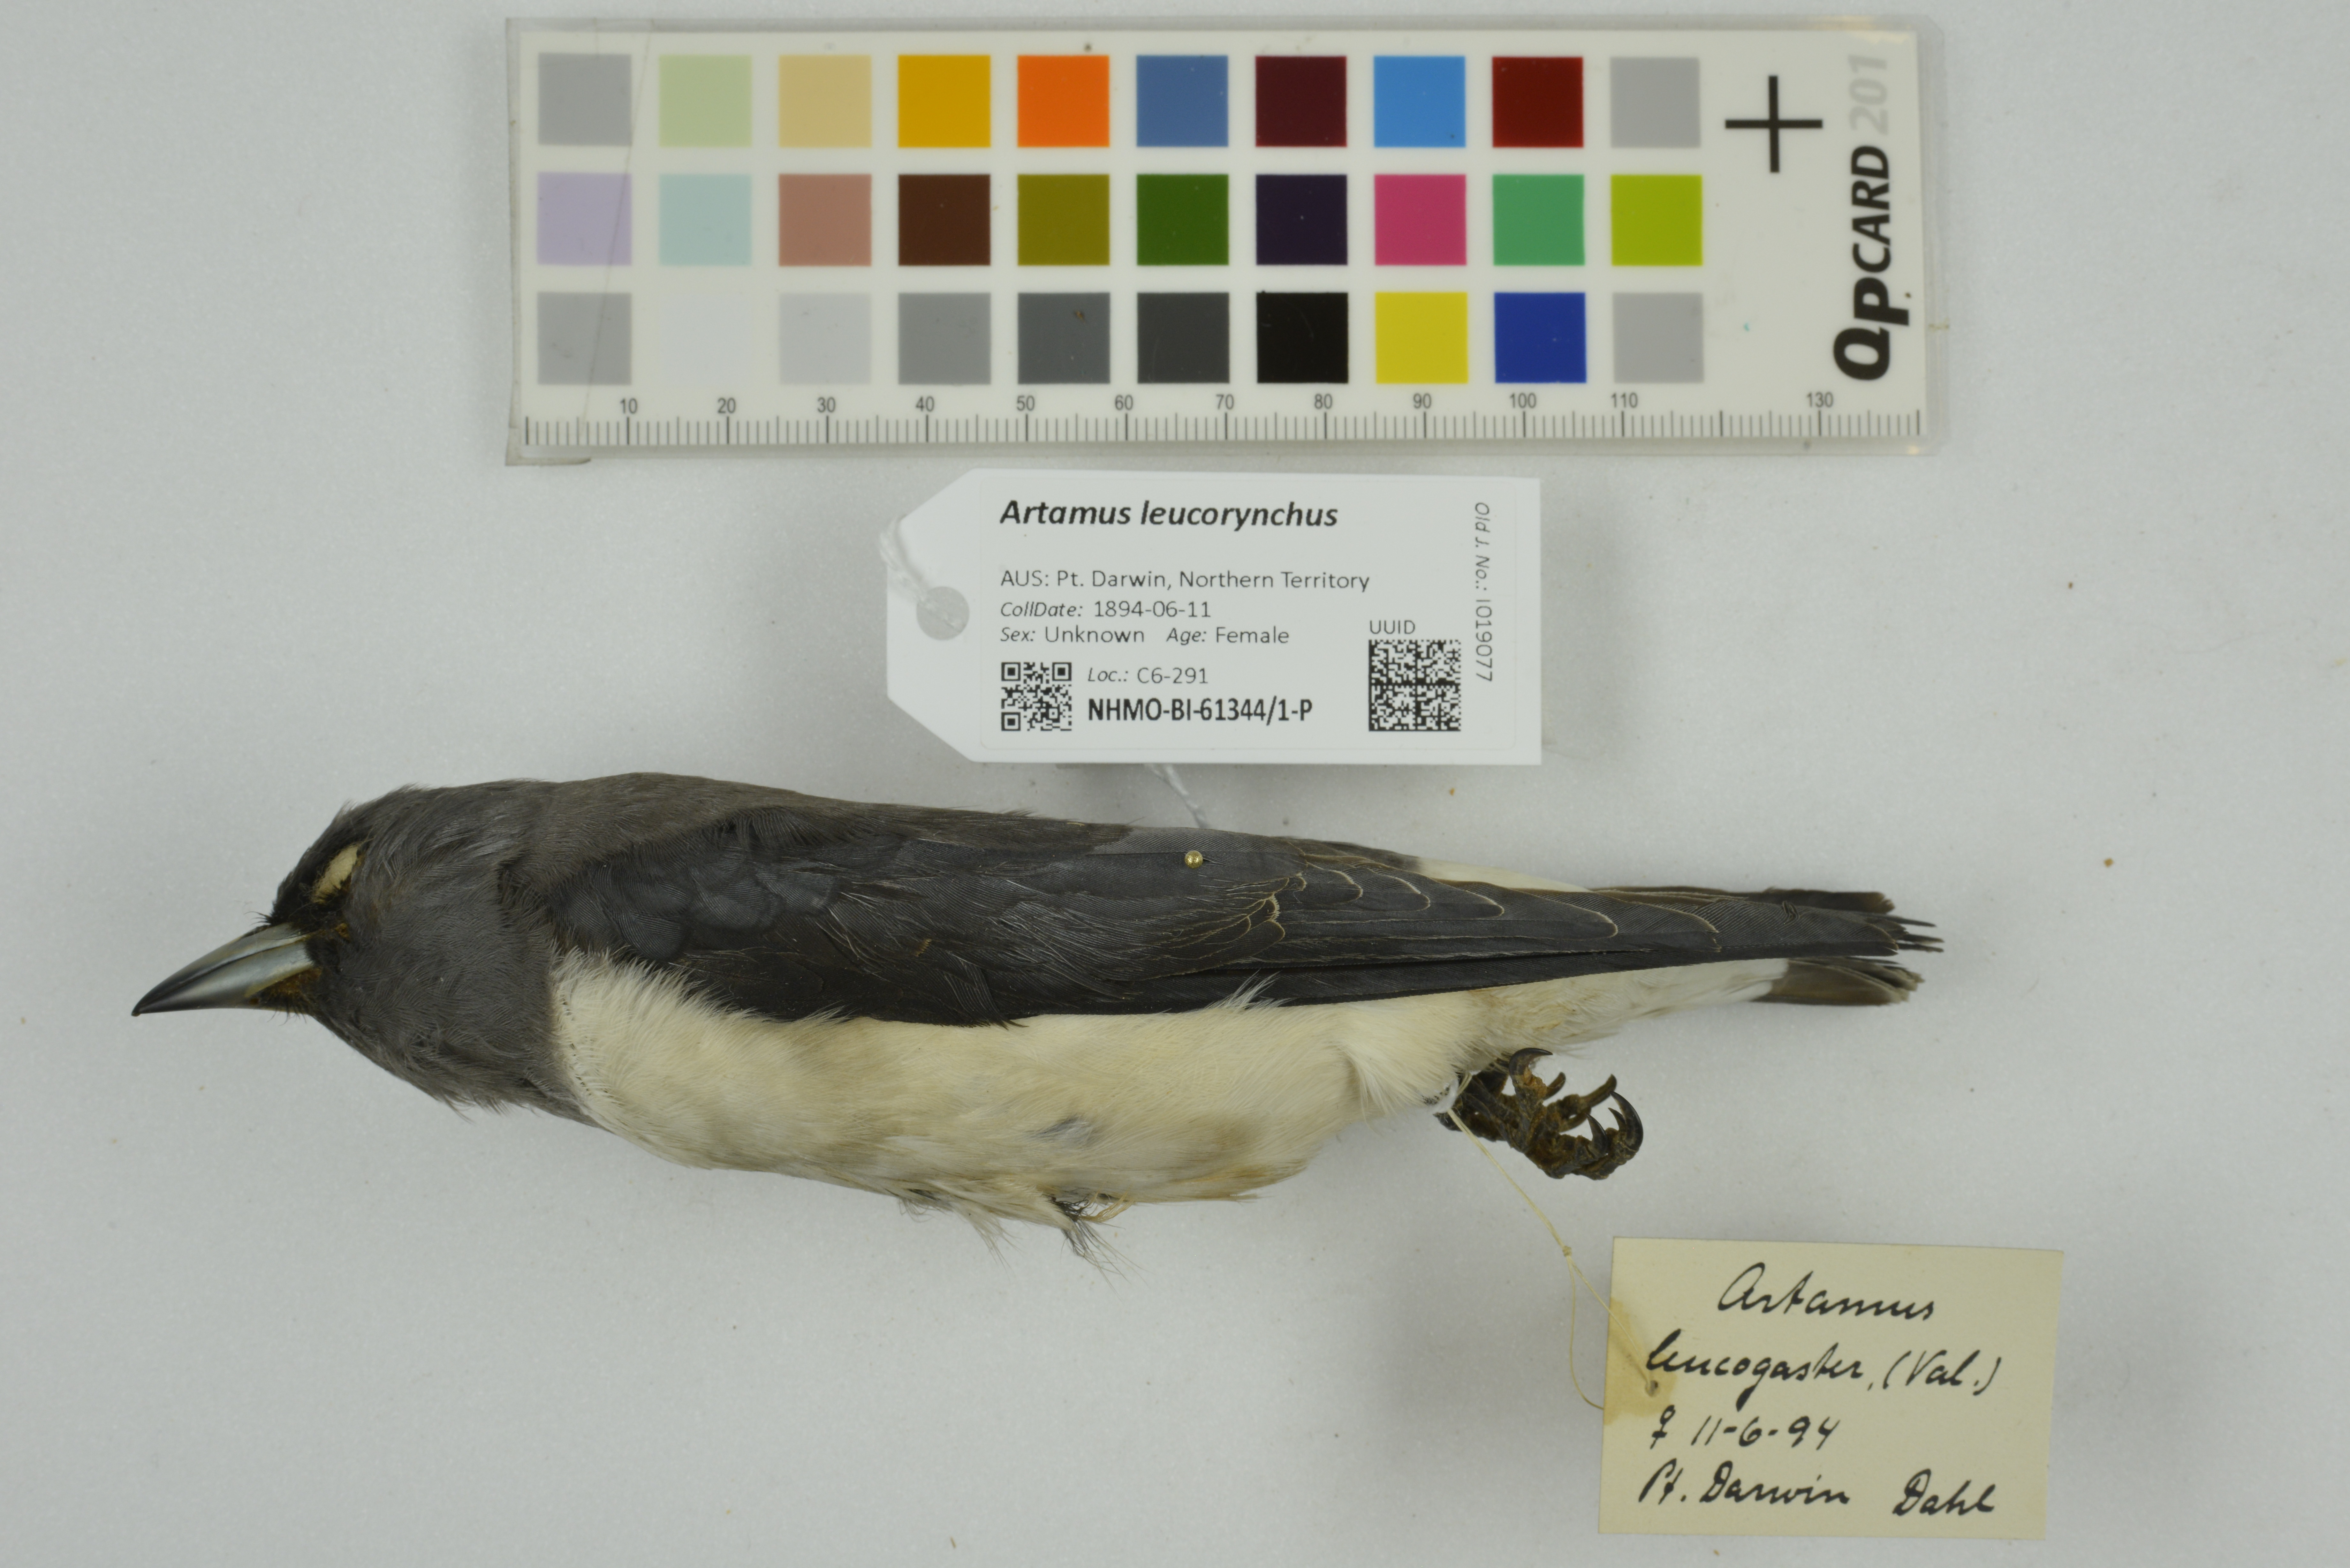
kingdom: Animalia
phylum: Chordata
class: Aves
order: Passeriformes
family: Artamidae
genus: Artamus
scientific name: Artamus leucoryn
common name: White-breasted woodswallow
